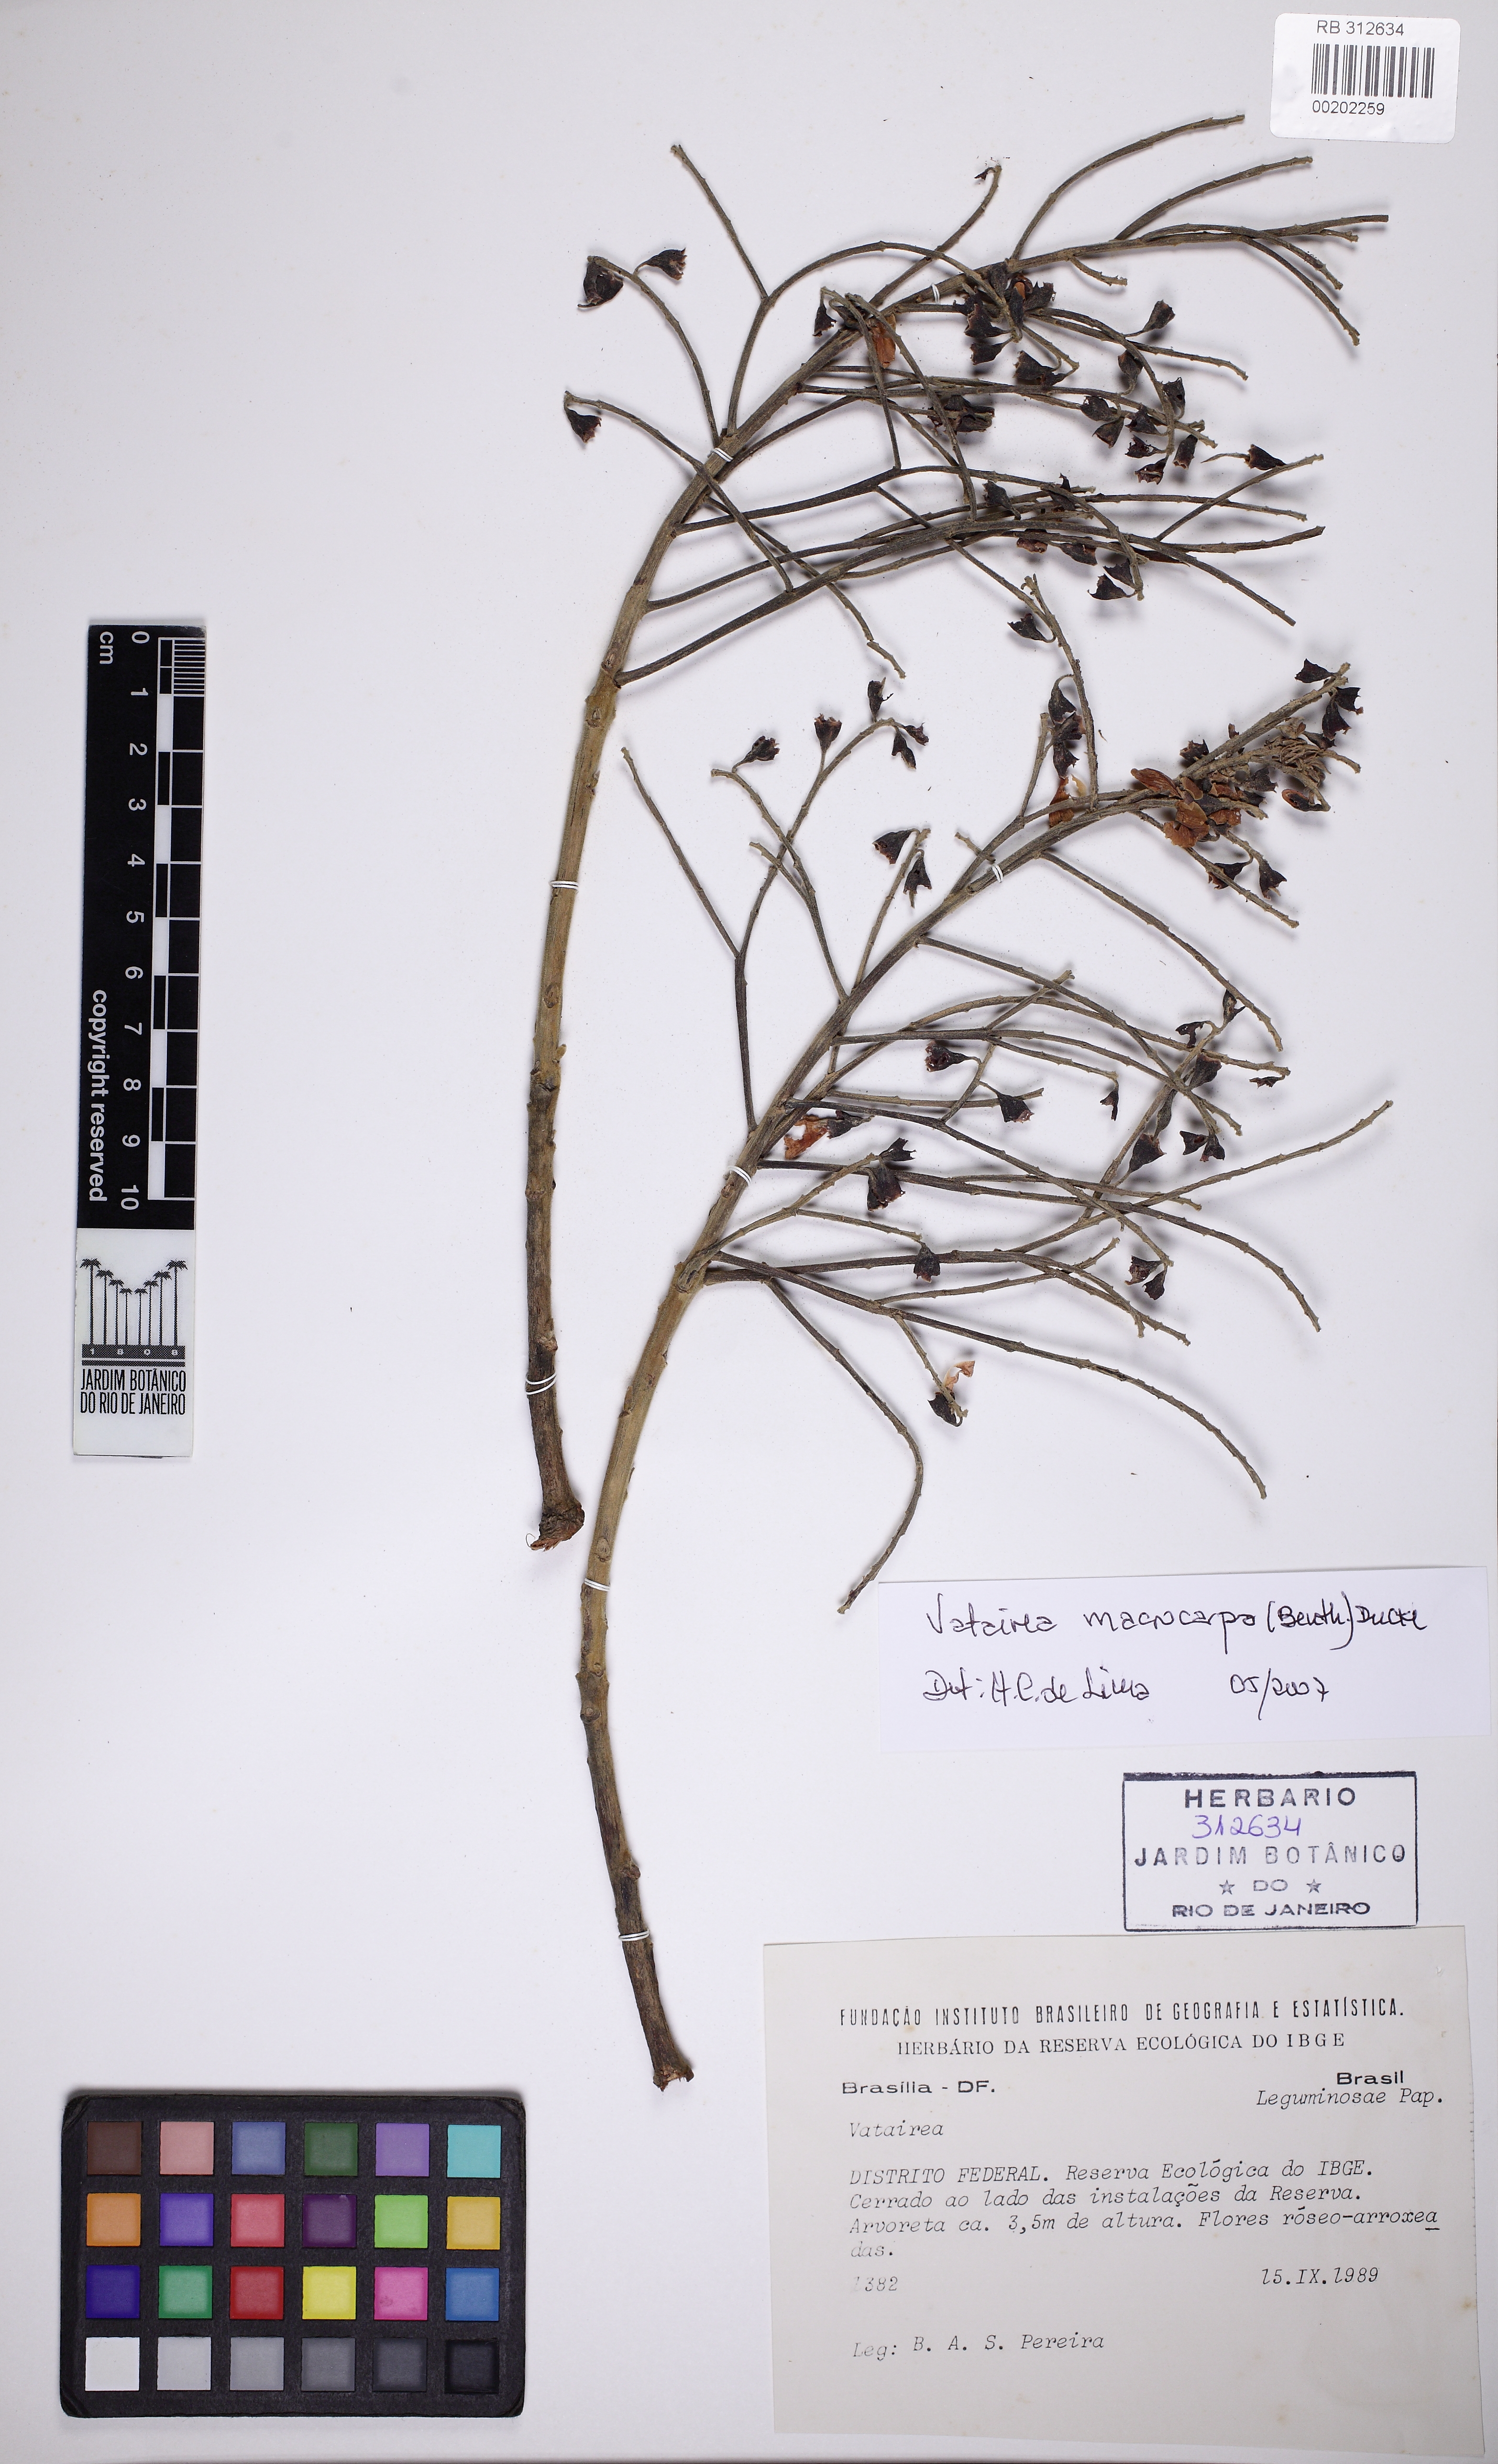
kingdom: Plantae
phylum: Tracheophyta
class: Magnoliopsida
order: Fabales
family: Fabaceae
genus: Vatairea
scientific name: Vatairea macrocarpa
